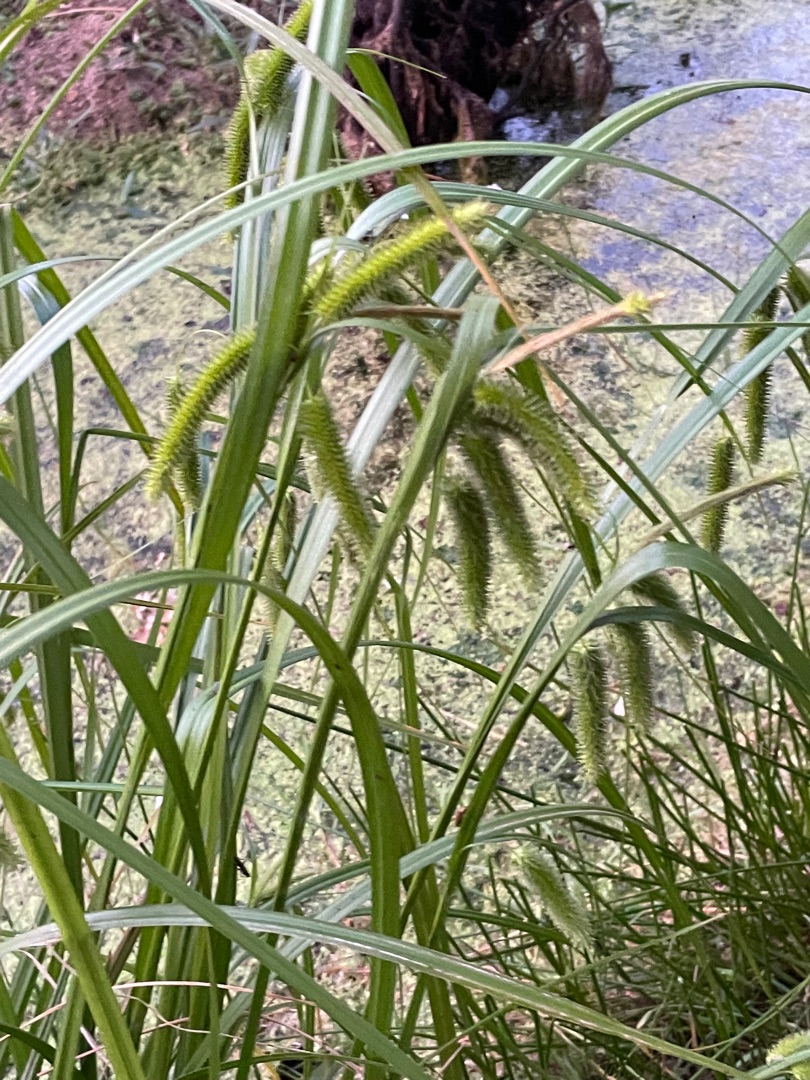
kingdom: Plantae
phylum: Tracheophyta
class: Liliopsida
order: Poales
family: Cyperaceae
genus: Carex
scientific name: Carex pseudocyperus
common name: Knippe-star
